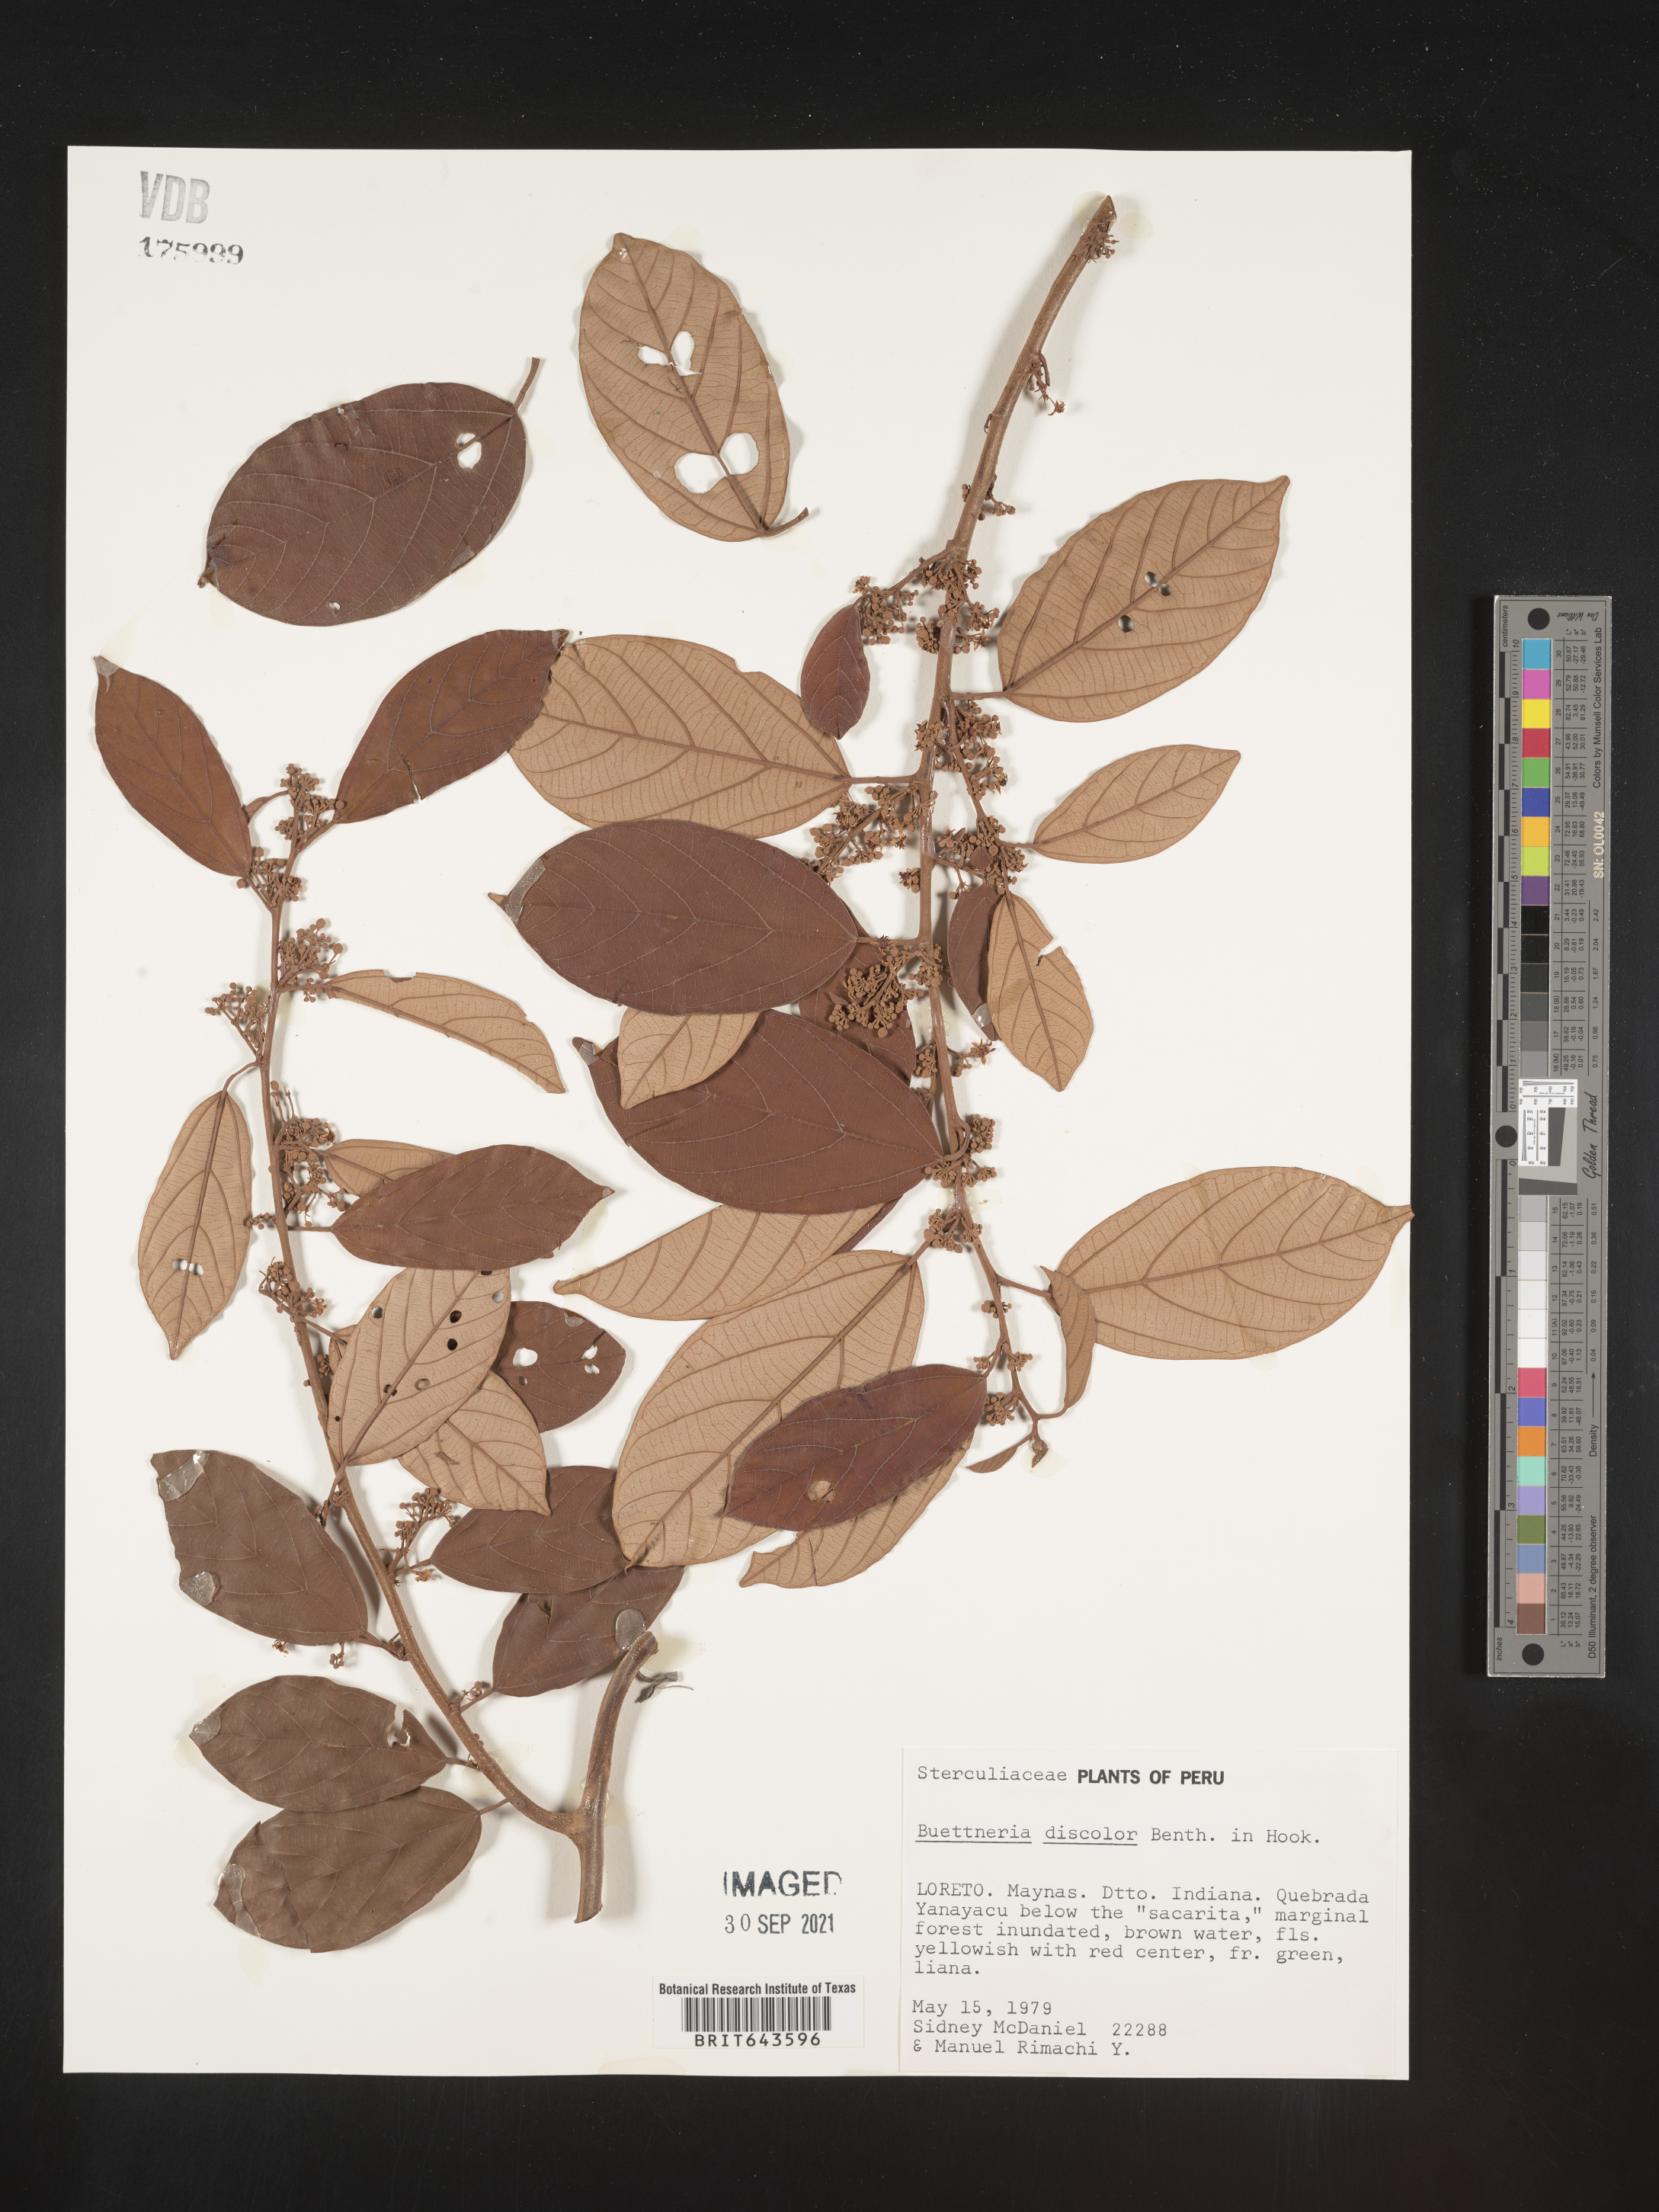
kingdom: Plantae
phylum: Tracheophyta
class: Magnoliopsida
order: Malvales
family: Malvaceae
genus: Byttneria
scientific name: Byttneria
